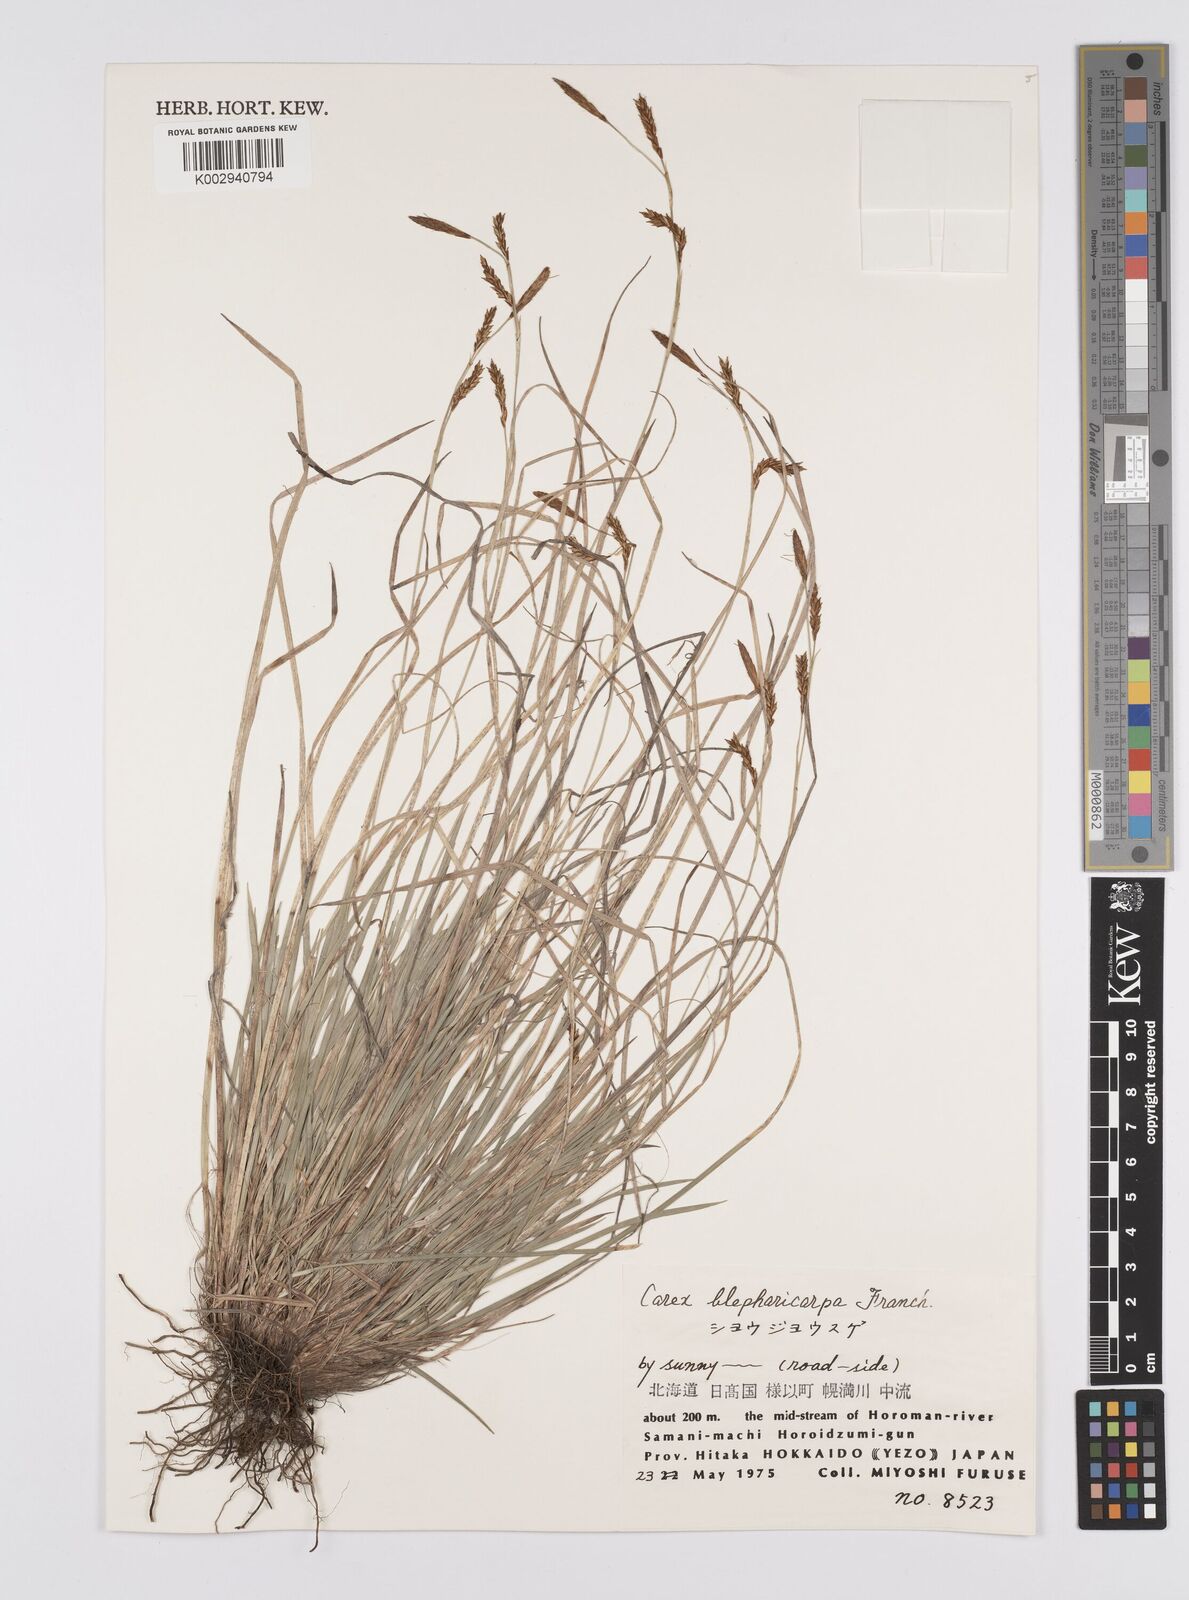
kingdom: Plantae
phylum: Tracheophyta
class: Liliopsida
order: Poales
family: Cyperaceae
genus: Carex
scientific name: Carex blepharicarpa
